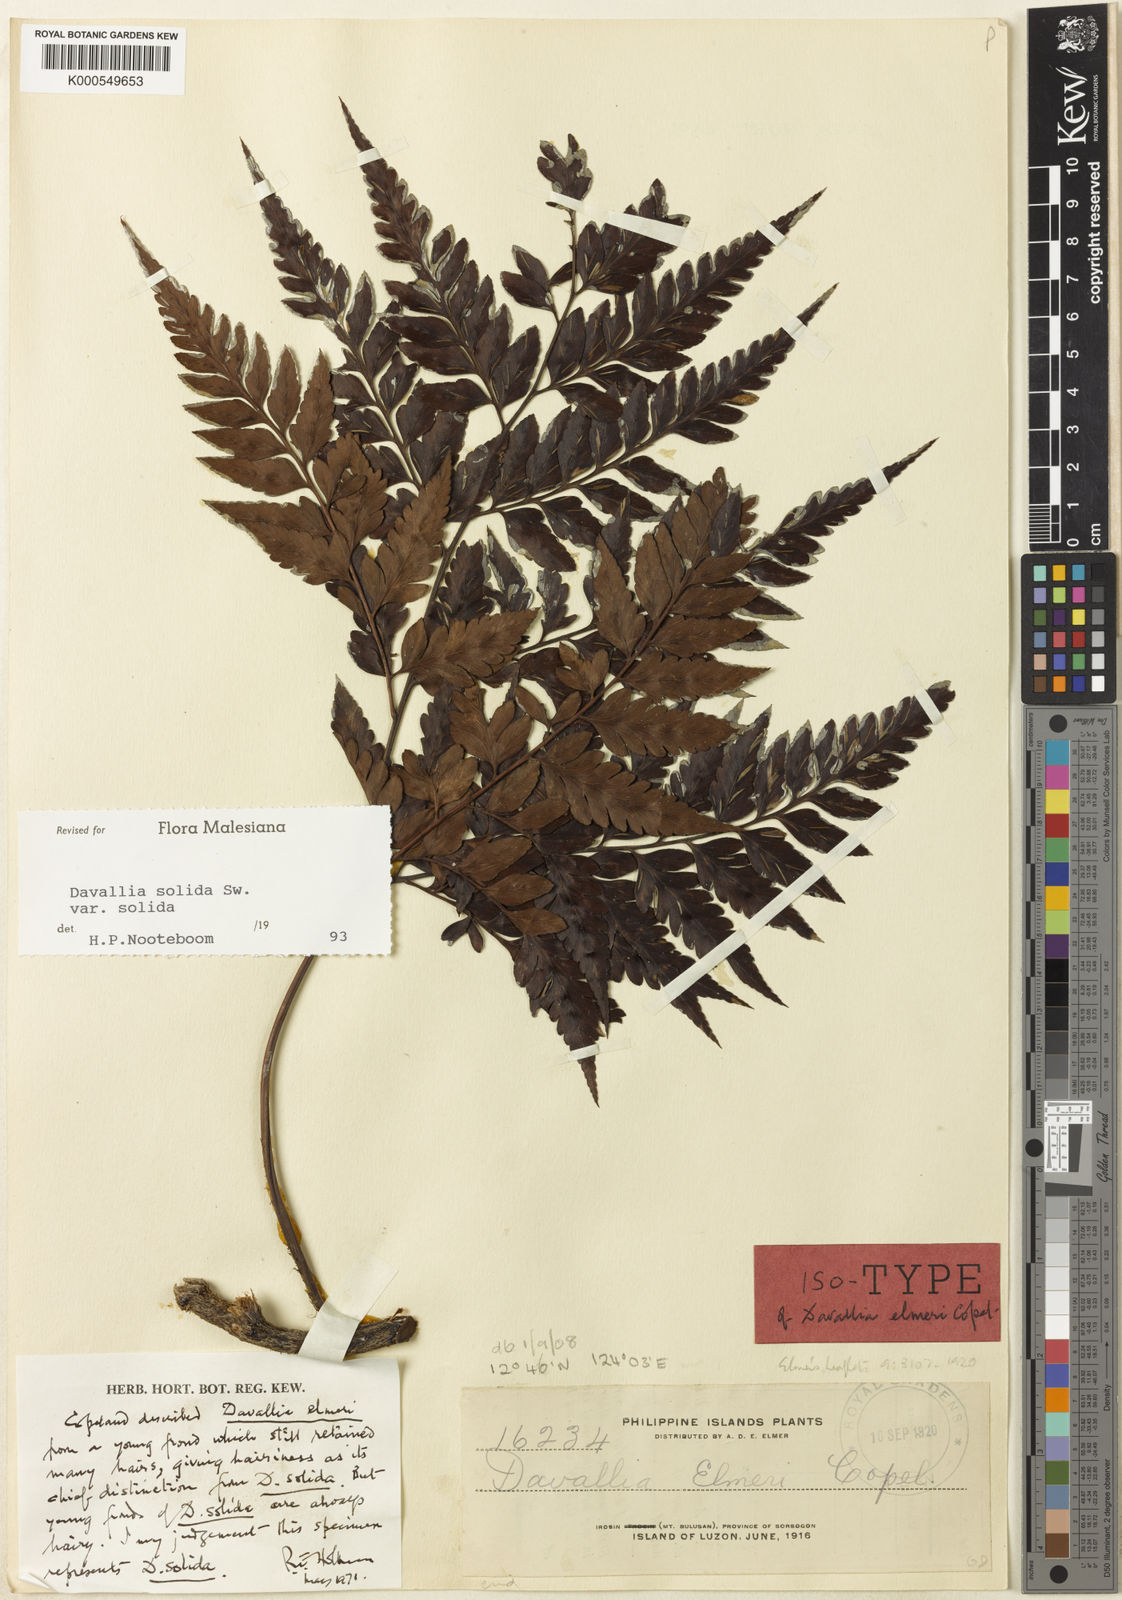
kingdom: Plantae
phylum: Tracheophyta
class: Polypodiopsida
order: Polypodiales
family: Davalliaceae
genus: Davallia
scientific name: Davallia solida
